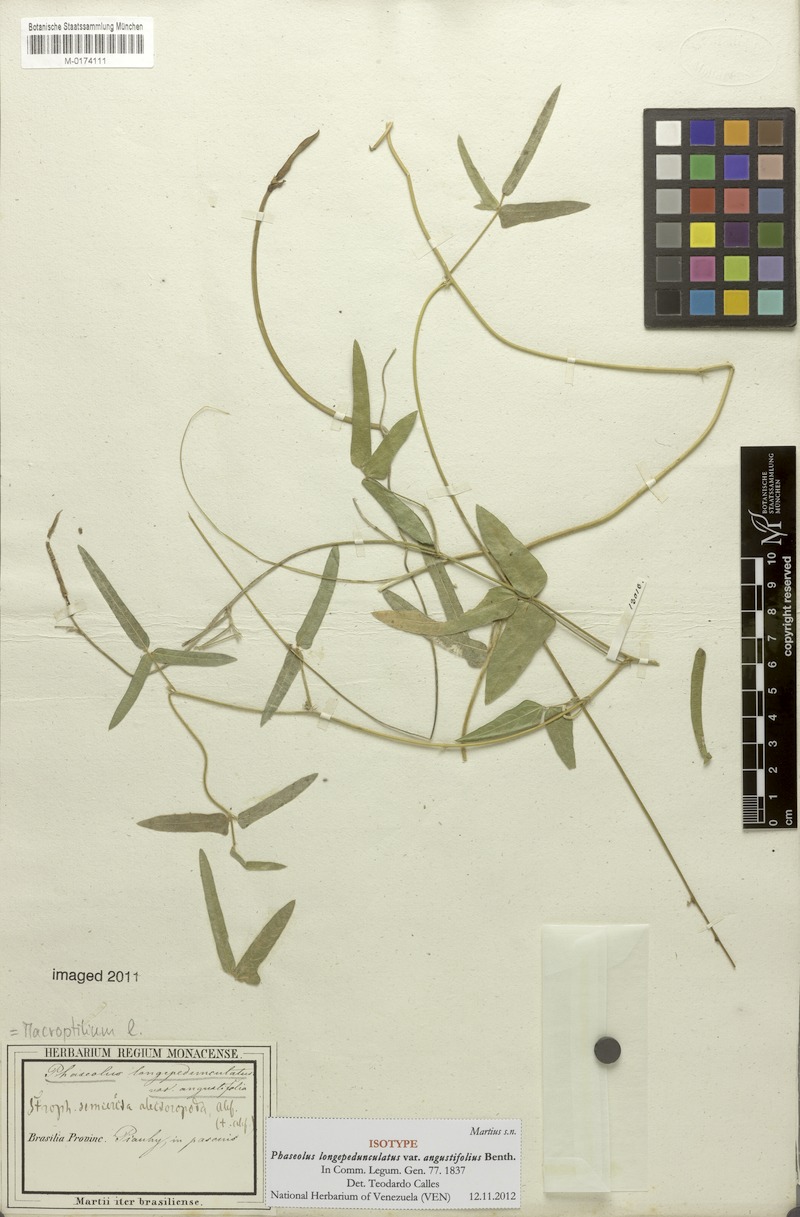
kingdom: Plantae
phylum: Tracheophyta
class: Magnoliopsida
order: Fabales
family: Fabaceae
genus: Macroptilium
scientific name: Macroptilium gracile
